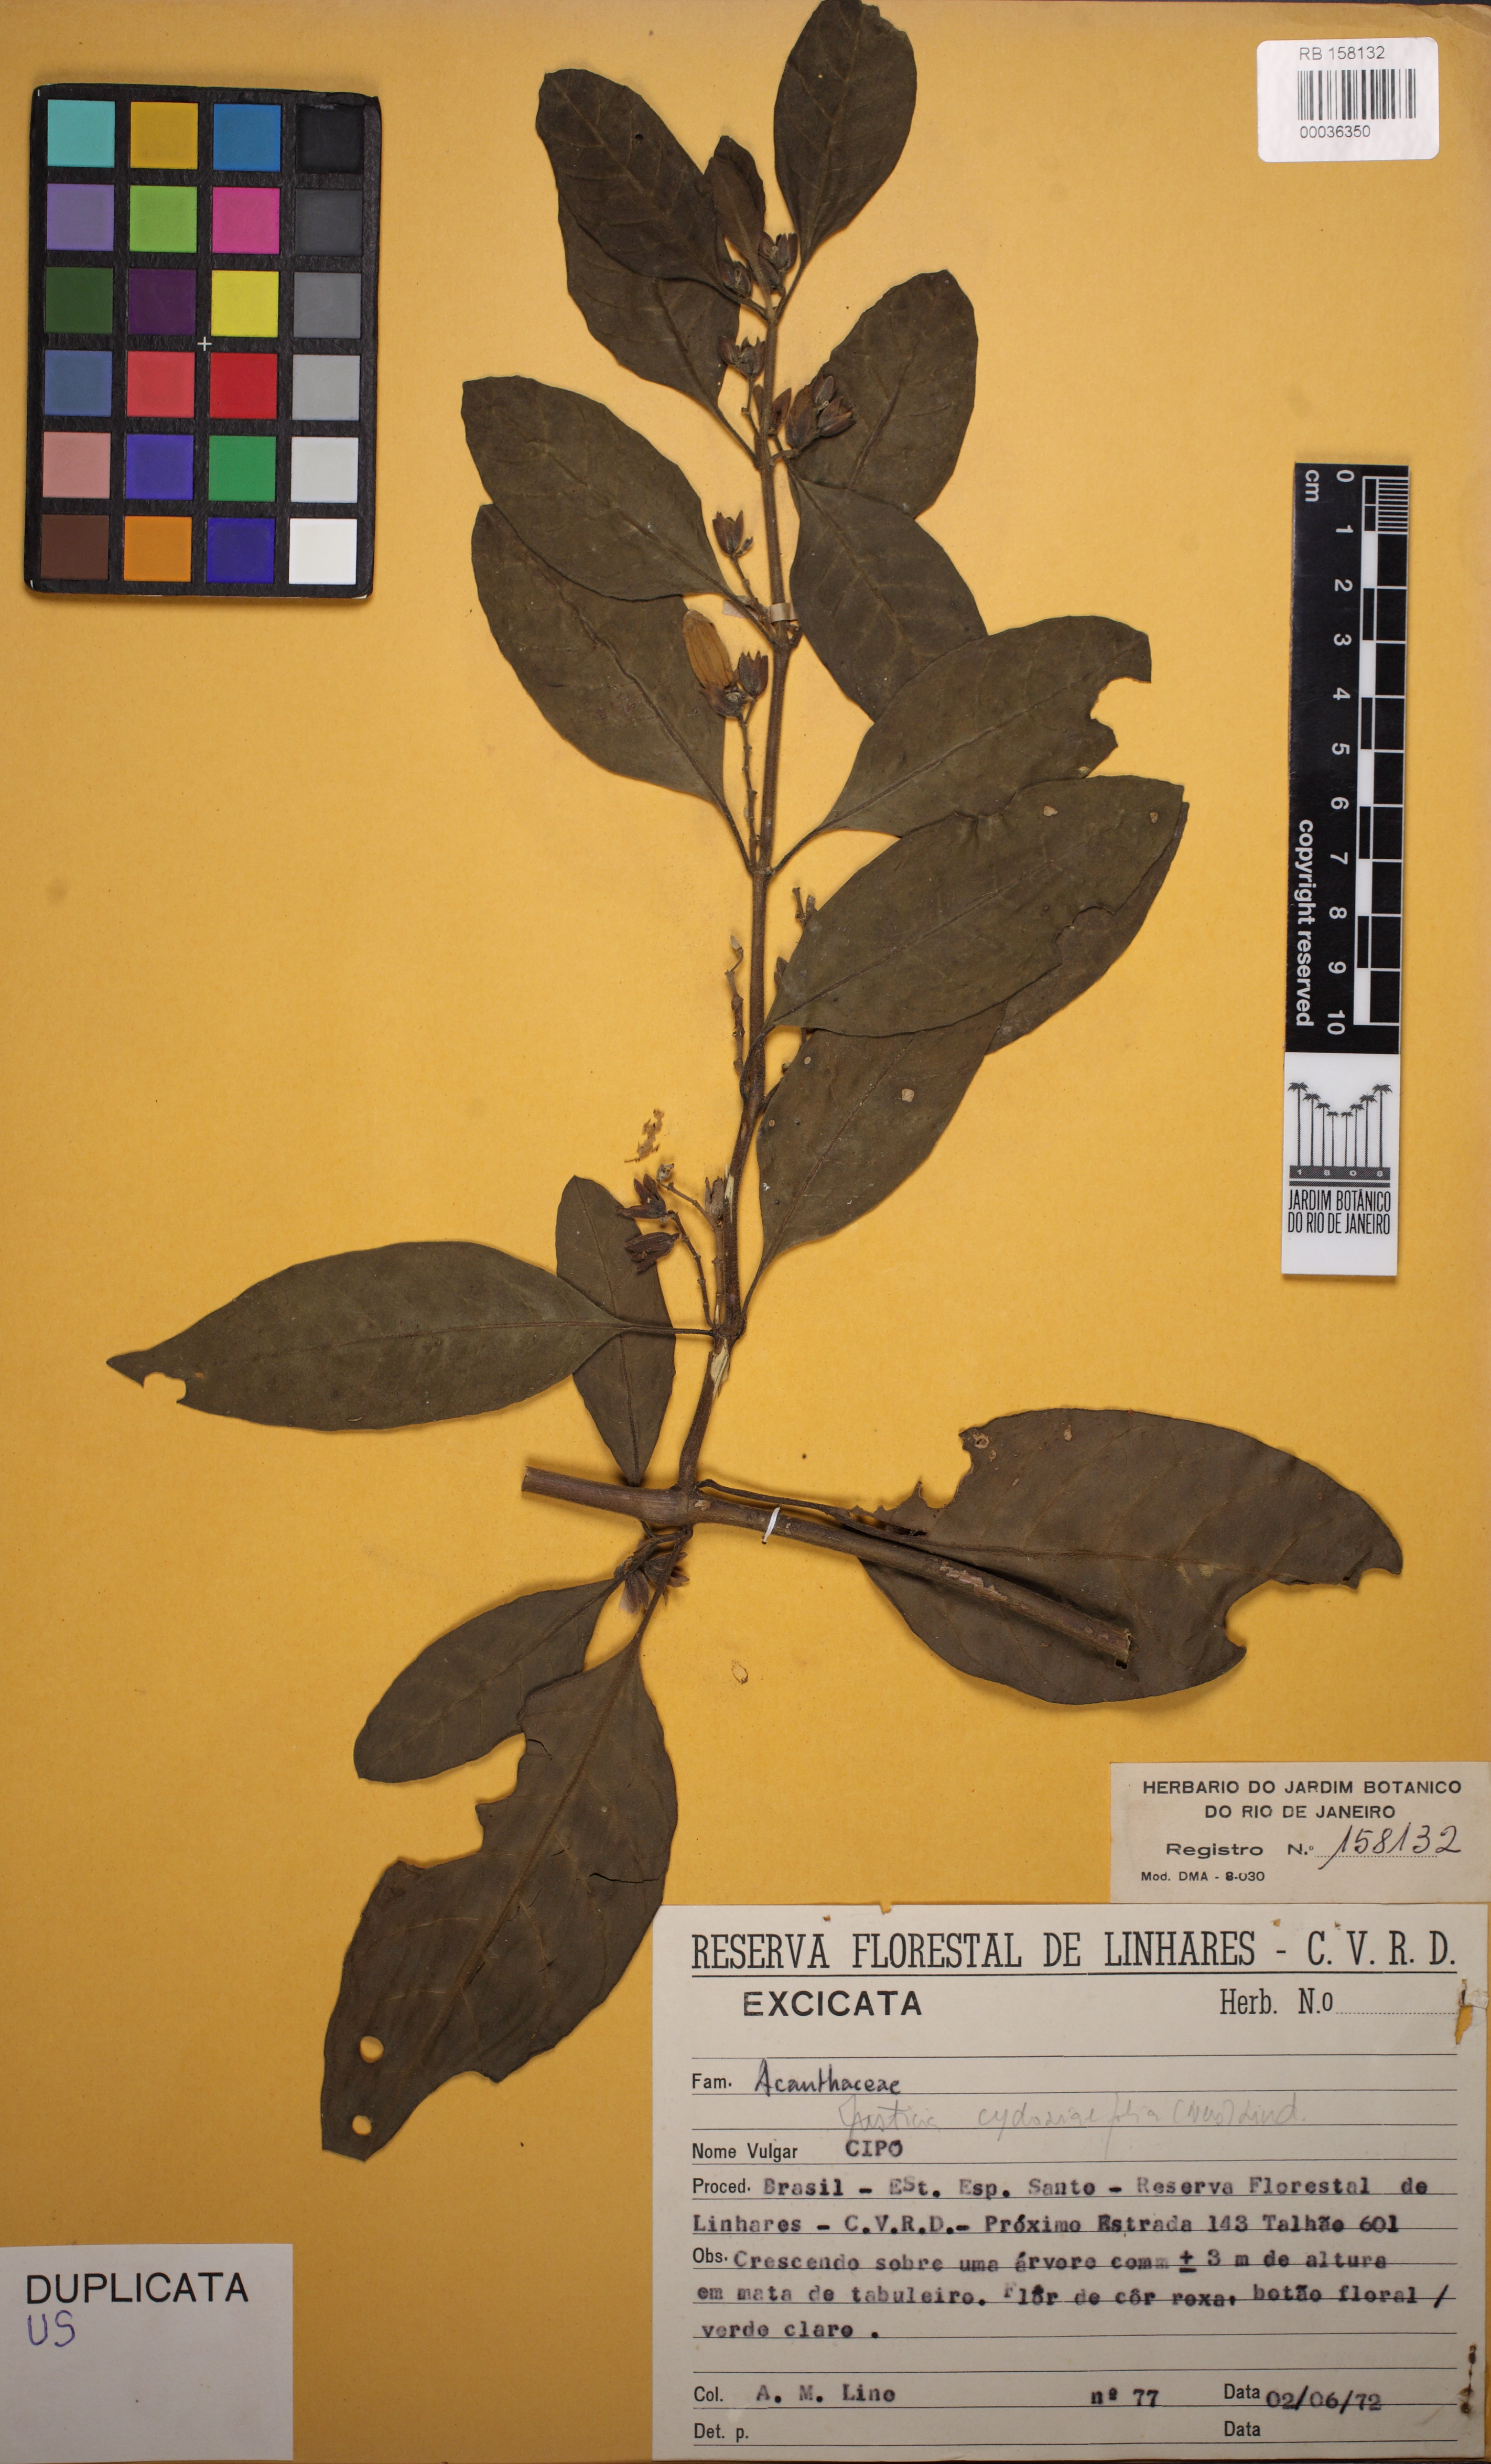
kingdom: Plantae
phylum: Tracheophyta
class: Magnoliopsida
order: Lamiales
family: Acanthaceae
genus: Justicia
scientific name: Justicia cydoniifolia
